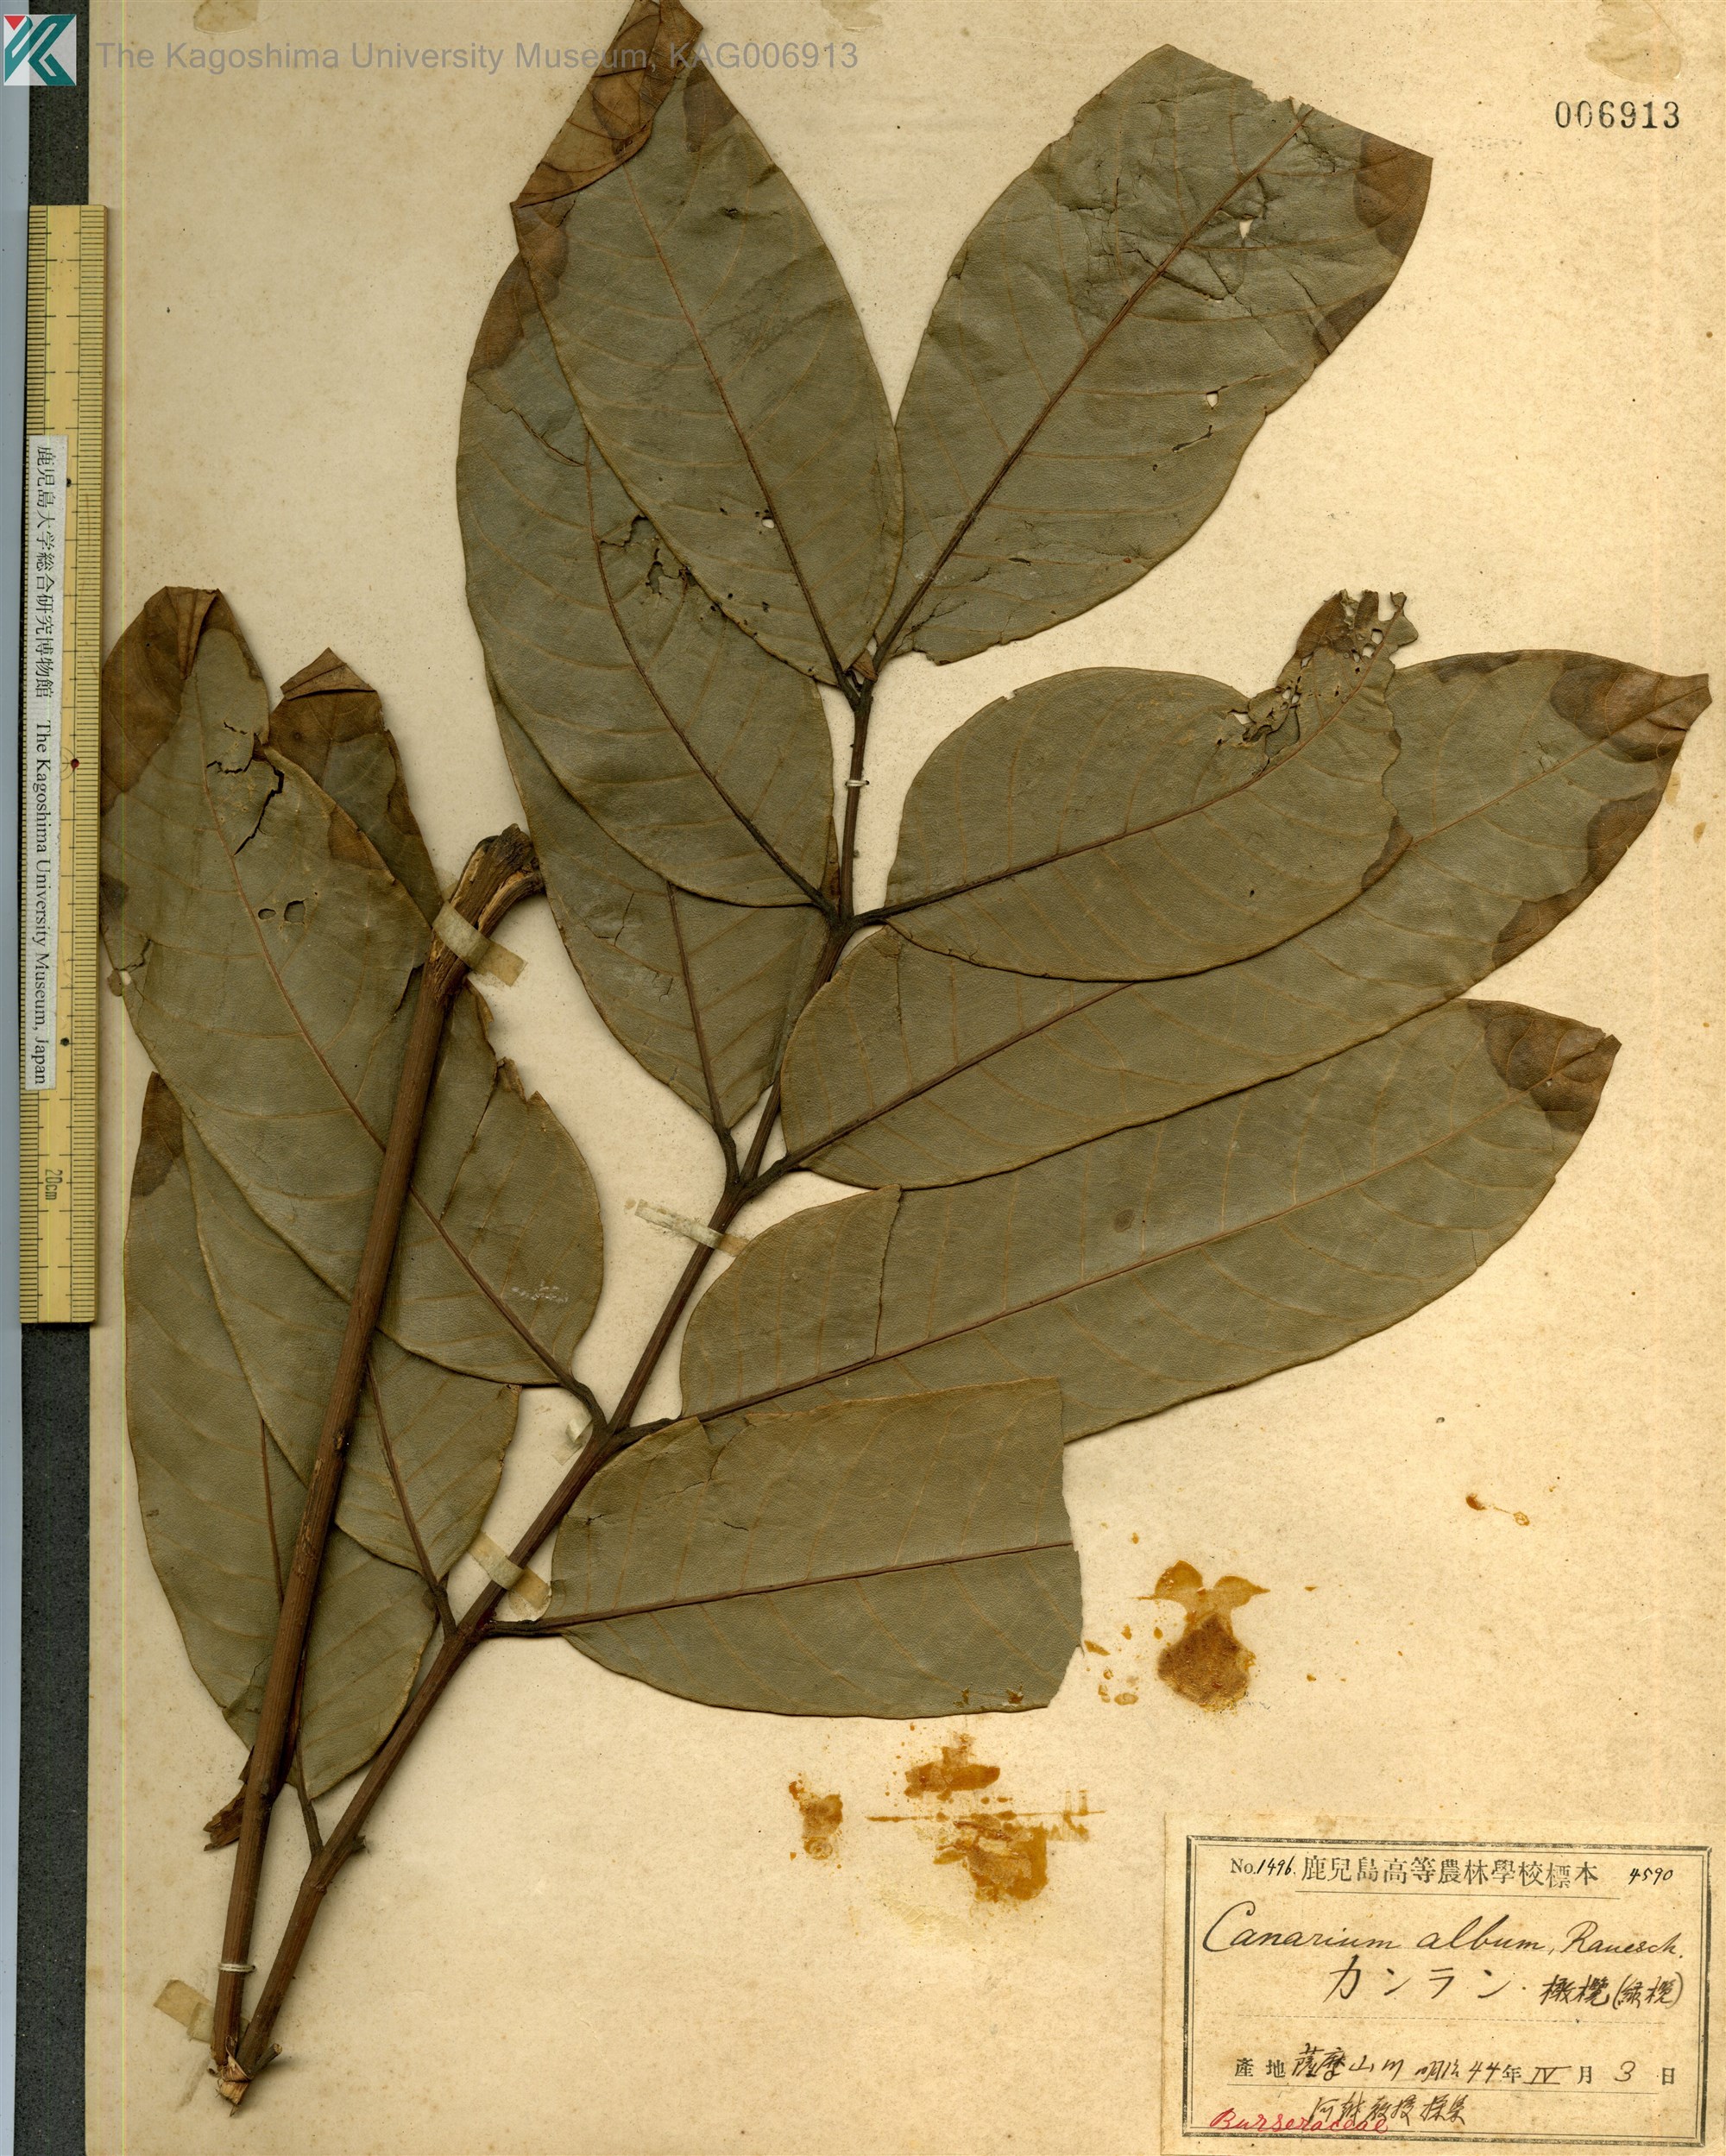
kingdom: Plantae
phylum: Tracheophyta
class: Magnoliopsida
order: Sapindales
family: Burseraceae
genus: Canarium
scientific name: Canarium album
